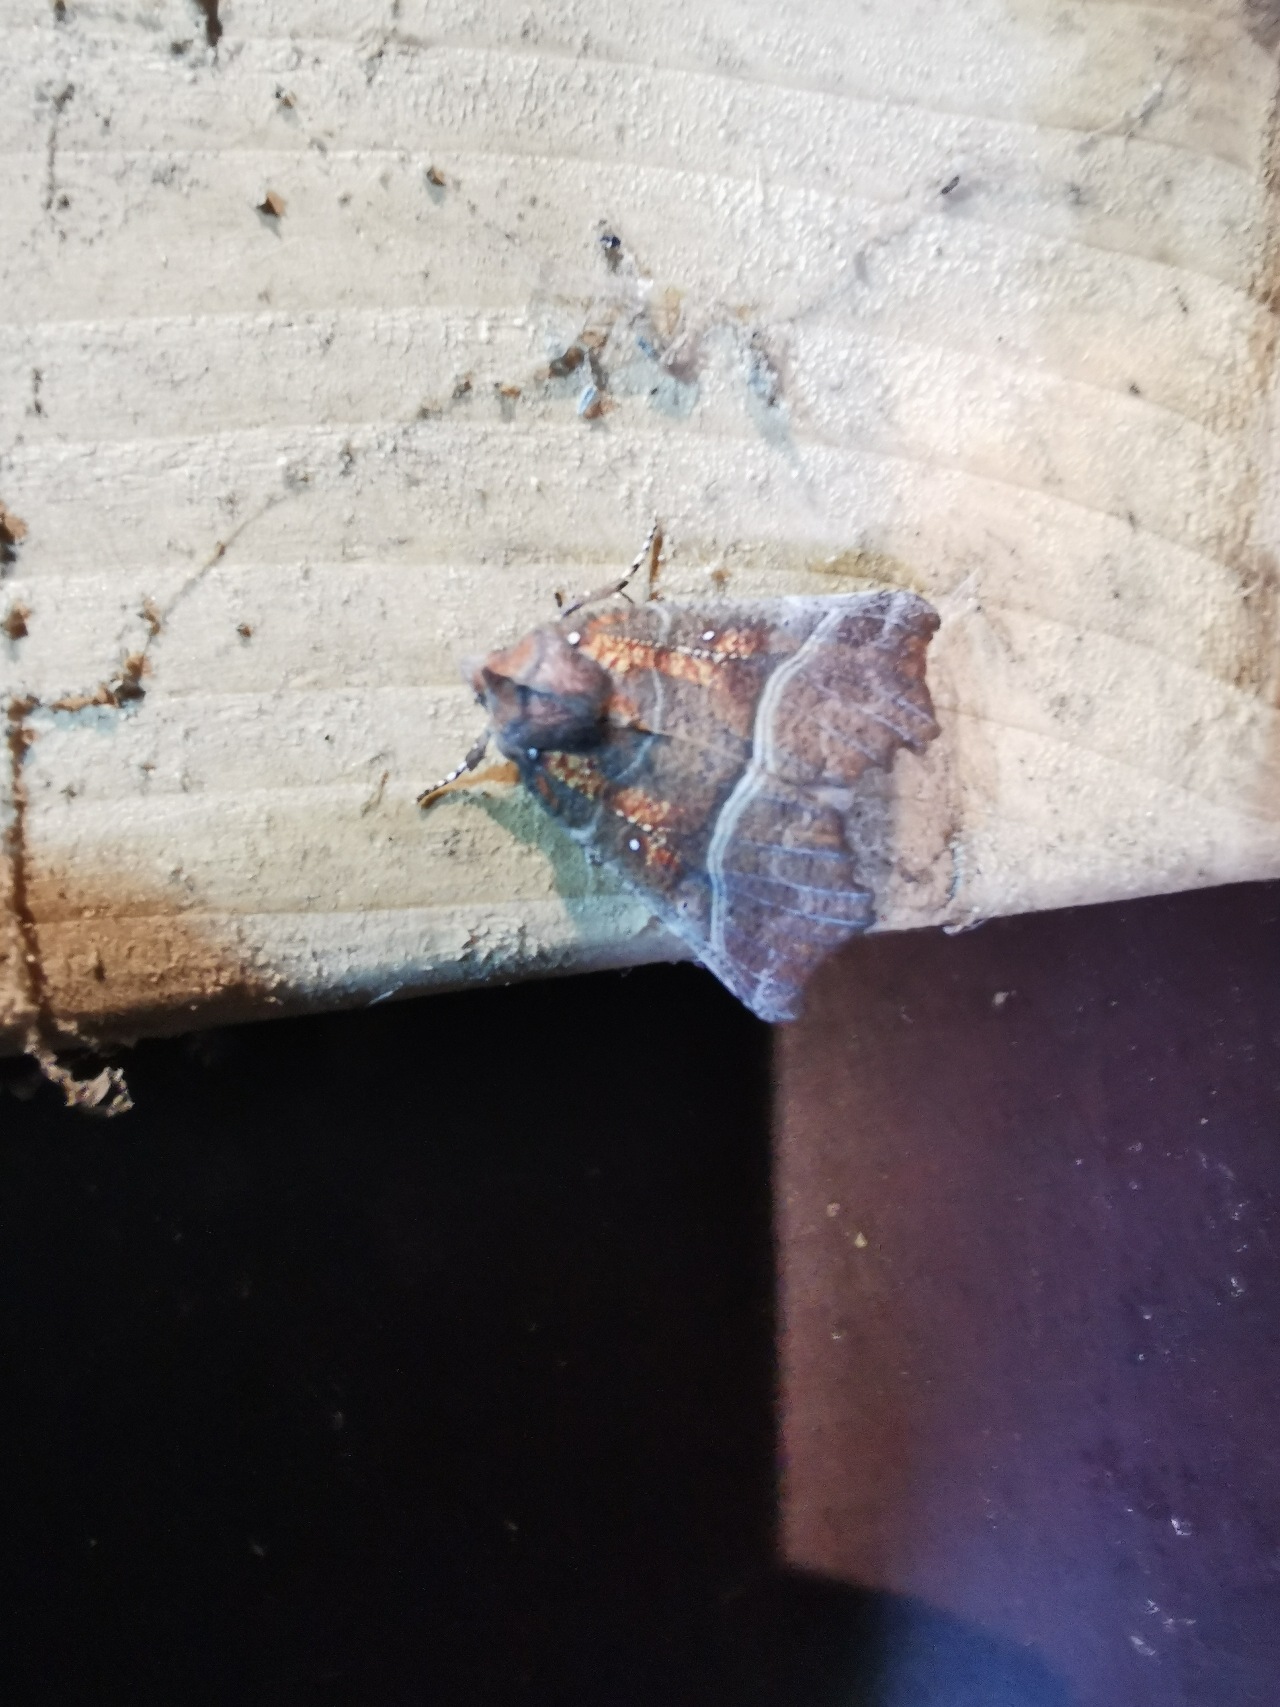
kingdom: Animalia
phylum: Arthropoda
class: Insecta
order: Lepidoptera
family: Erebidae
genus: Scoliopteryx
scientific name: Scoliopteryx libatrix
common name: Husmoderugle
